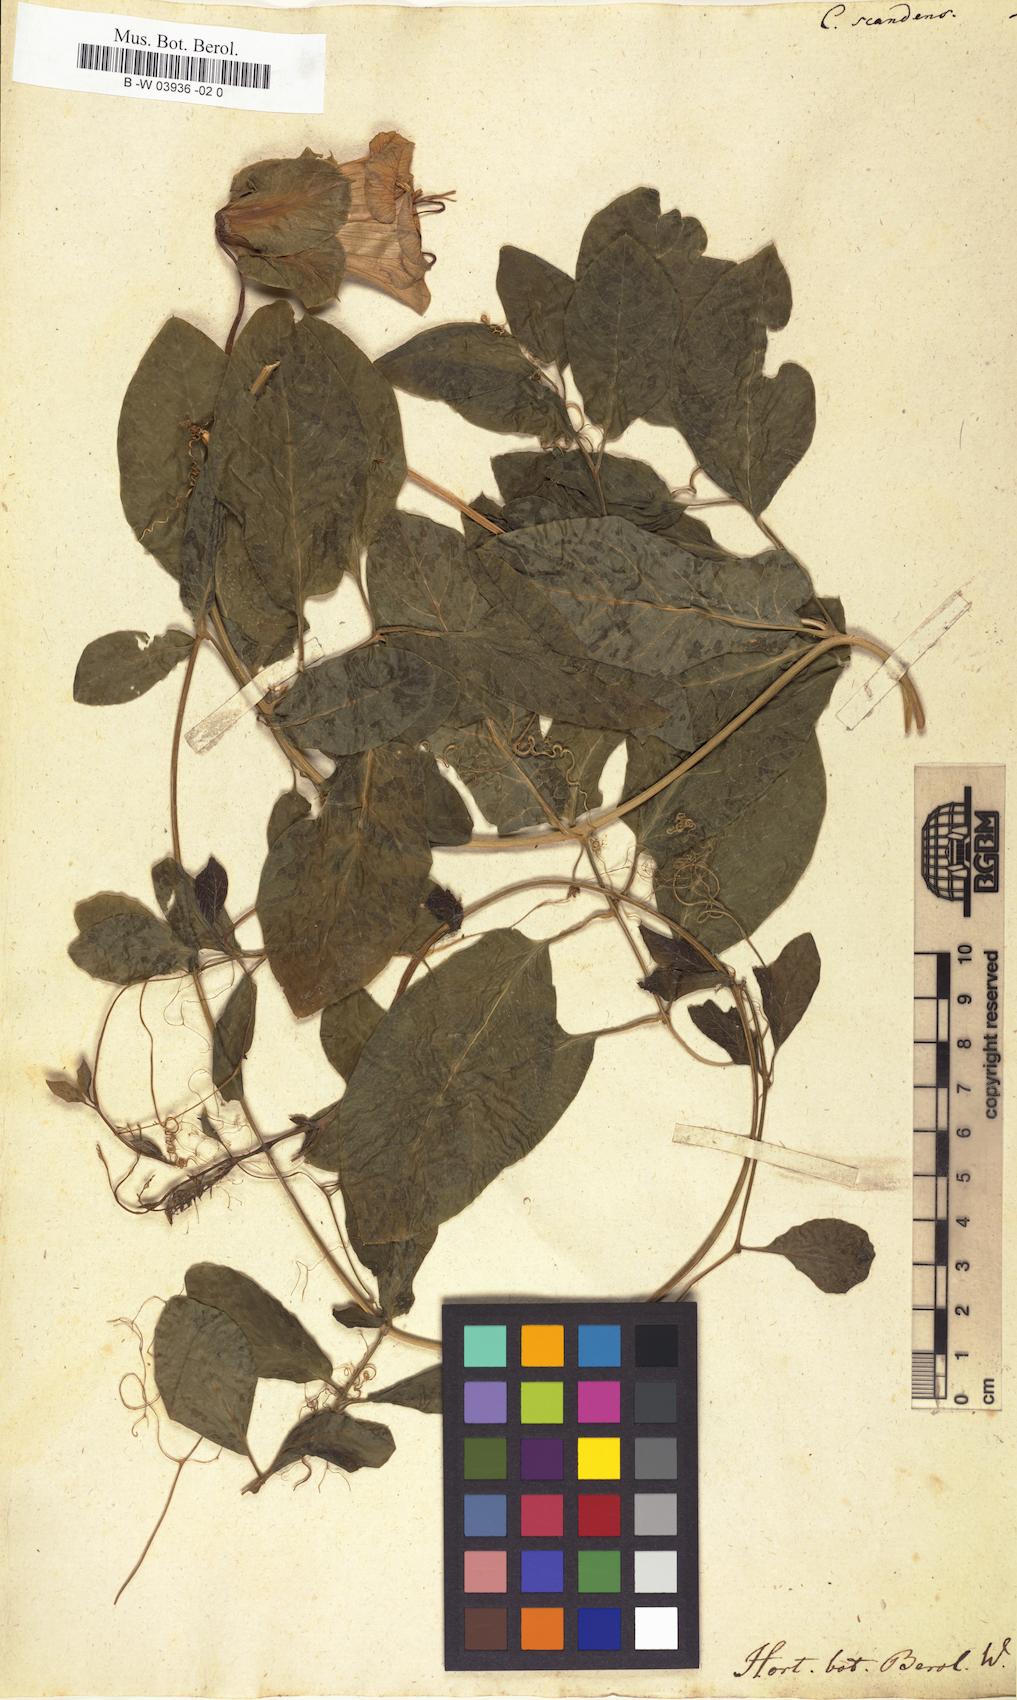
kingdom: Plantae
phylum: Tracheophyta
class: Magnoliopsida
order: Ericales
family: Polemoniaceae
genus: Cobaea
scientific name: Cobaea scandens
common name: Cup-and-saucer-vine
